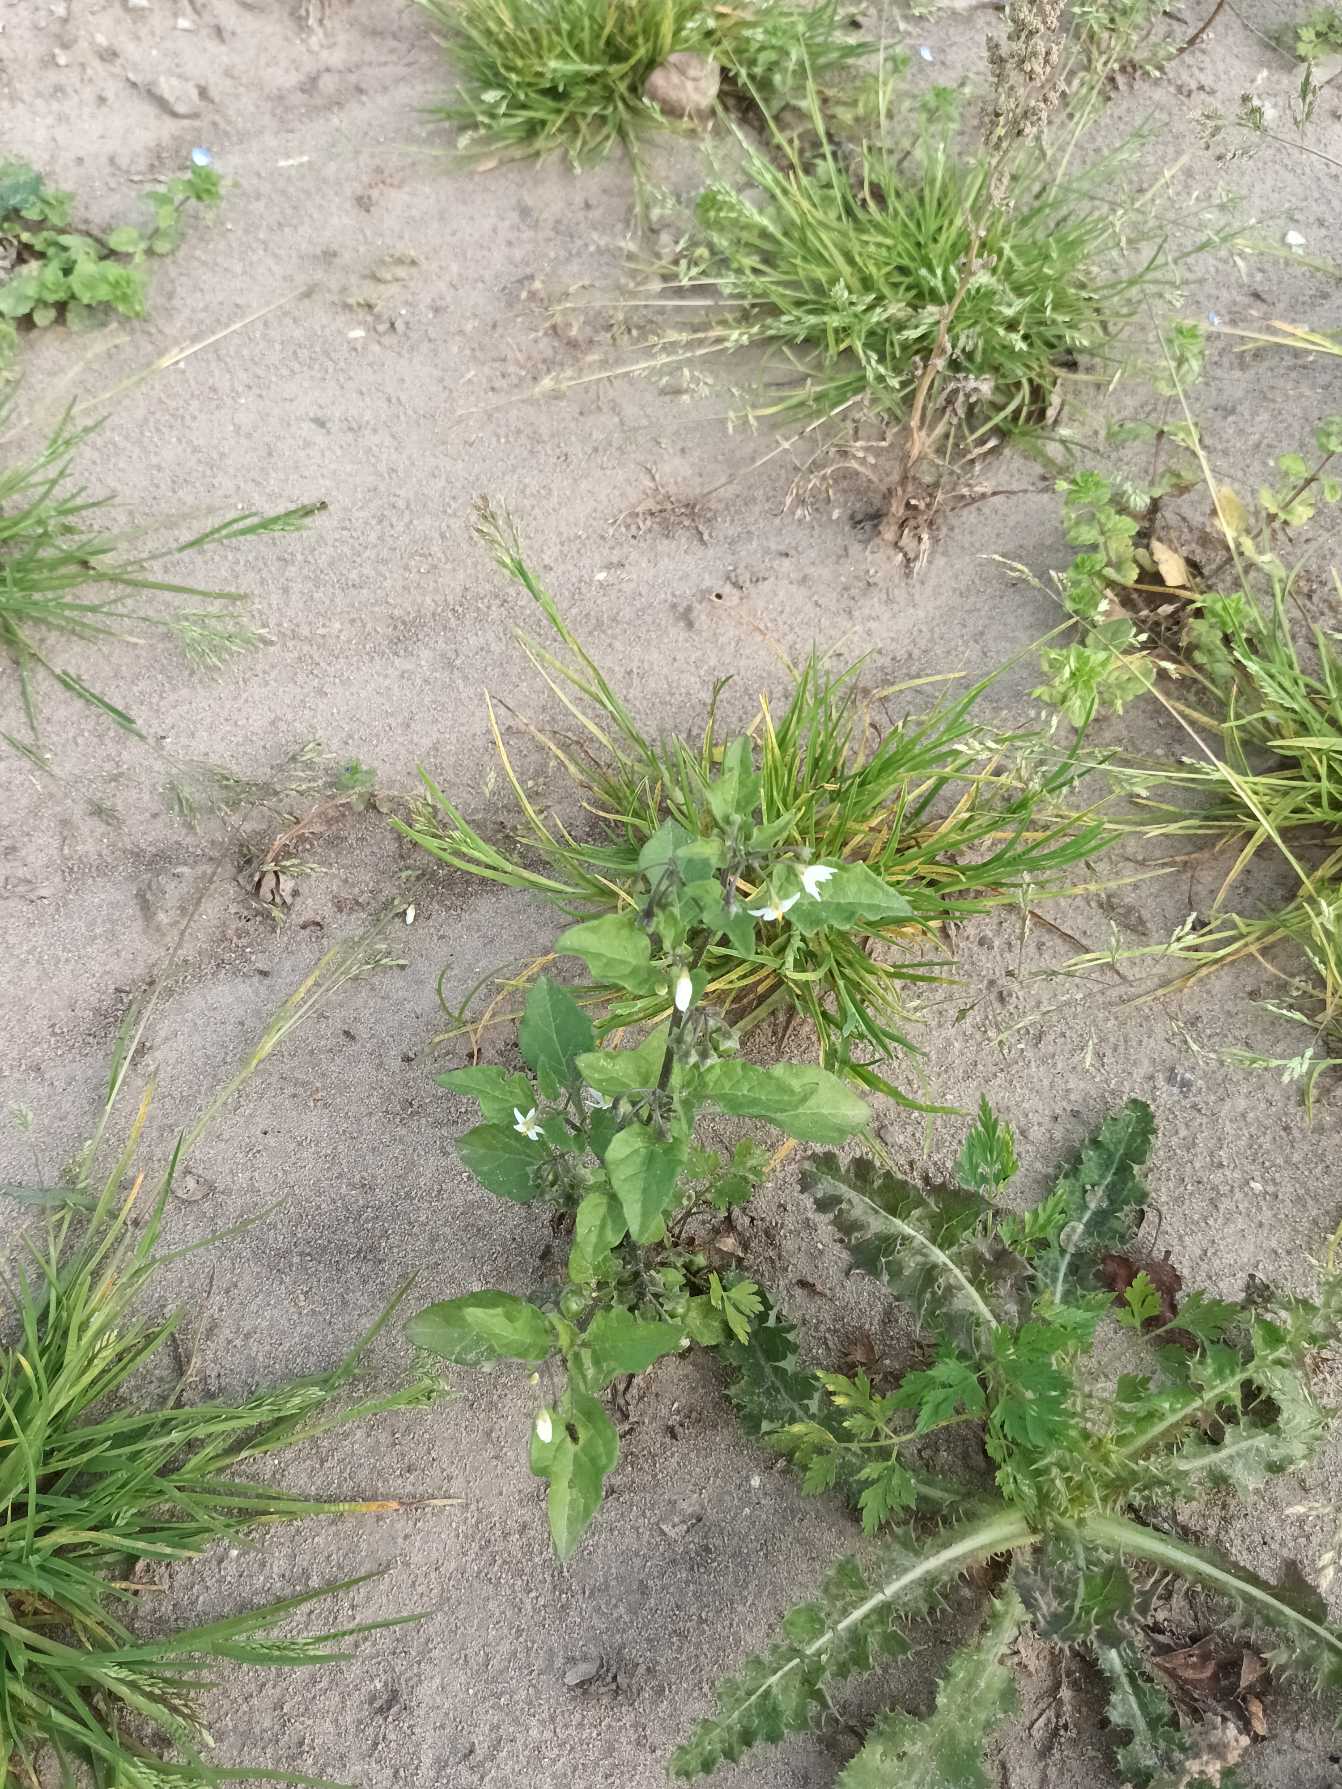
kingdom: Plantae
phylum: Tracheophyta
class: Magnoliopsida
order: Solanales
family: Solanaceae
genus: Solanum
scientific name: Solanum nigrum
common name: Sort natskygge (underart)
